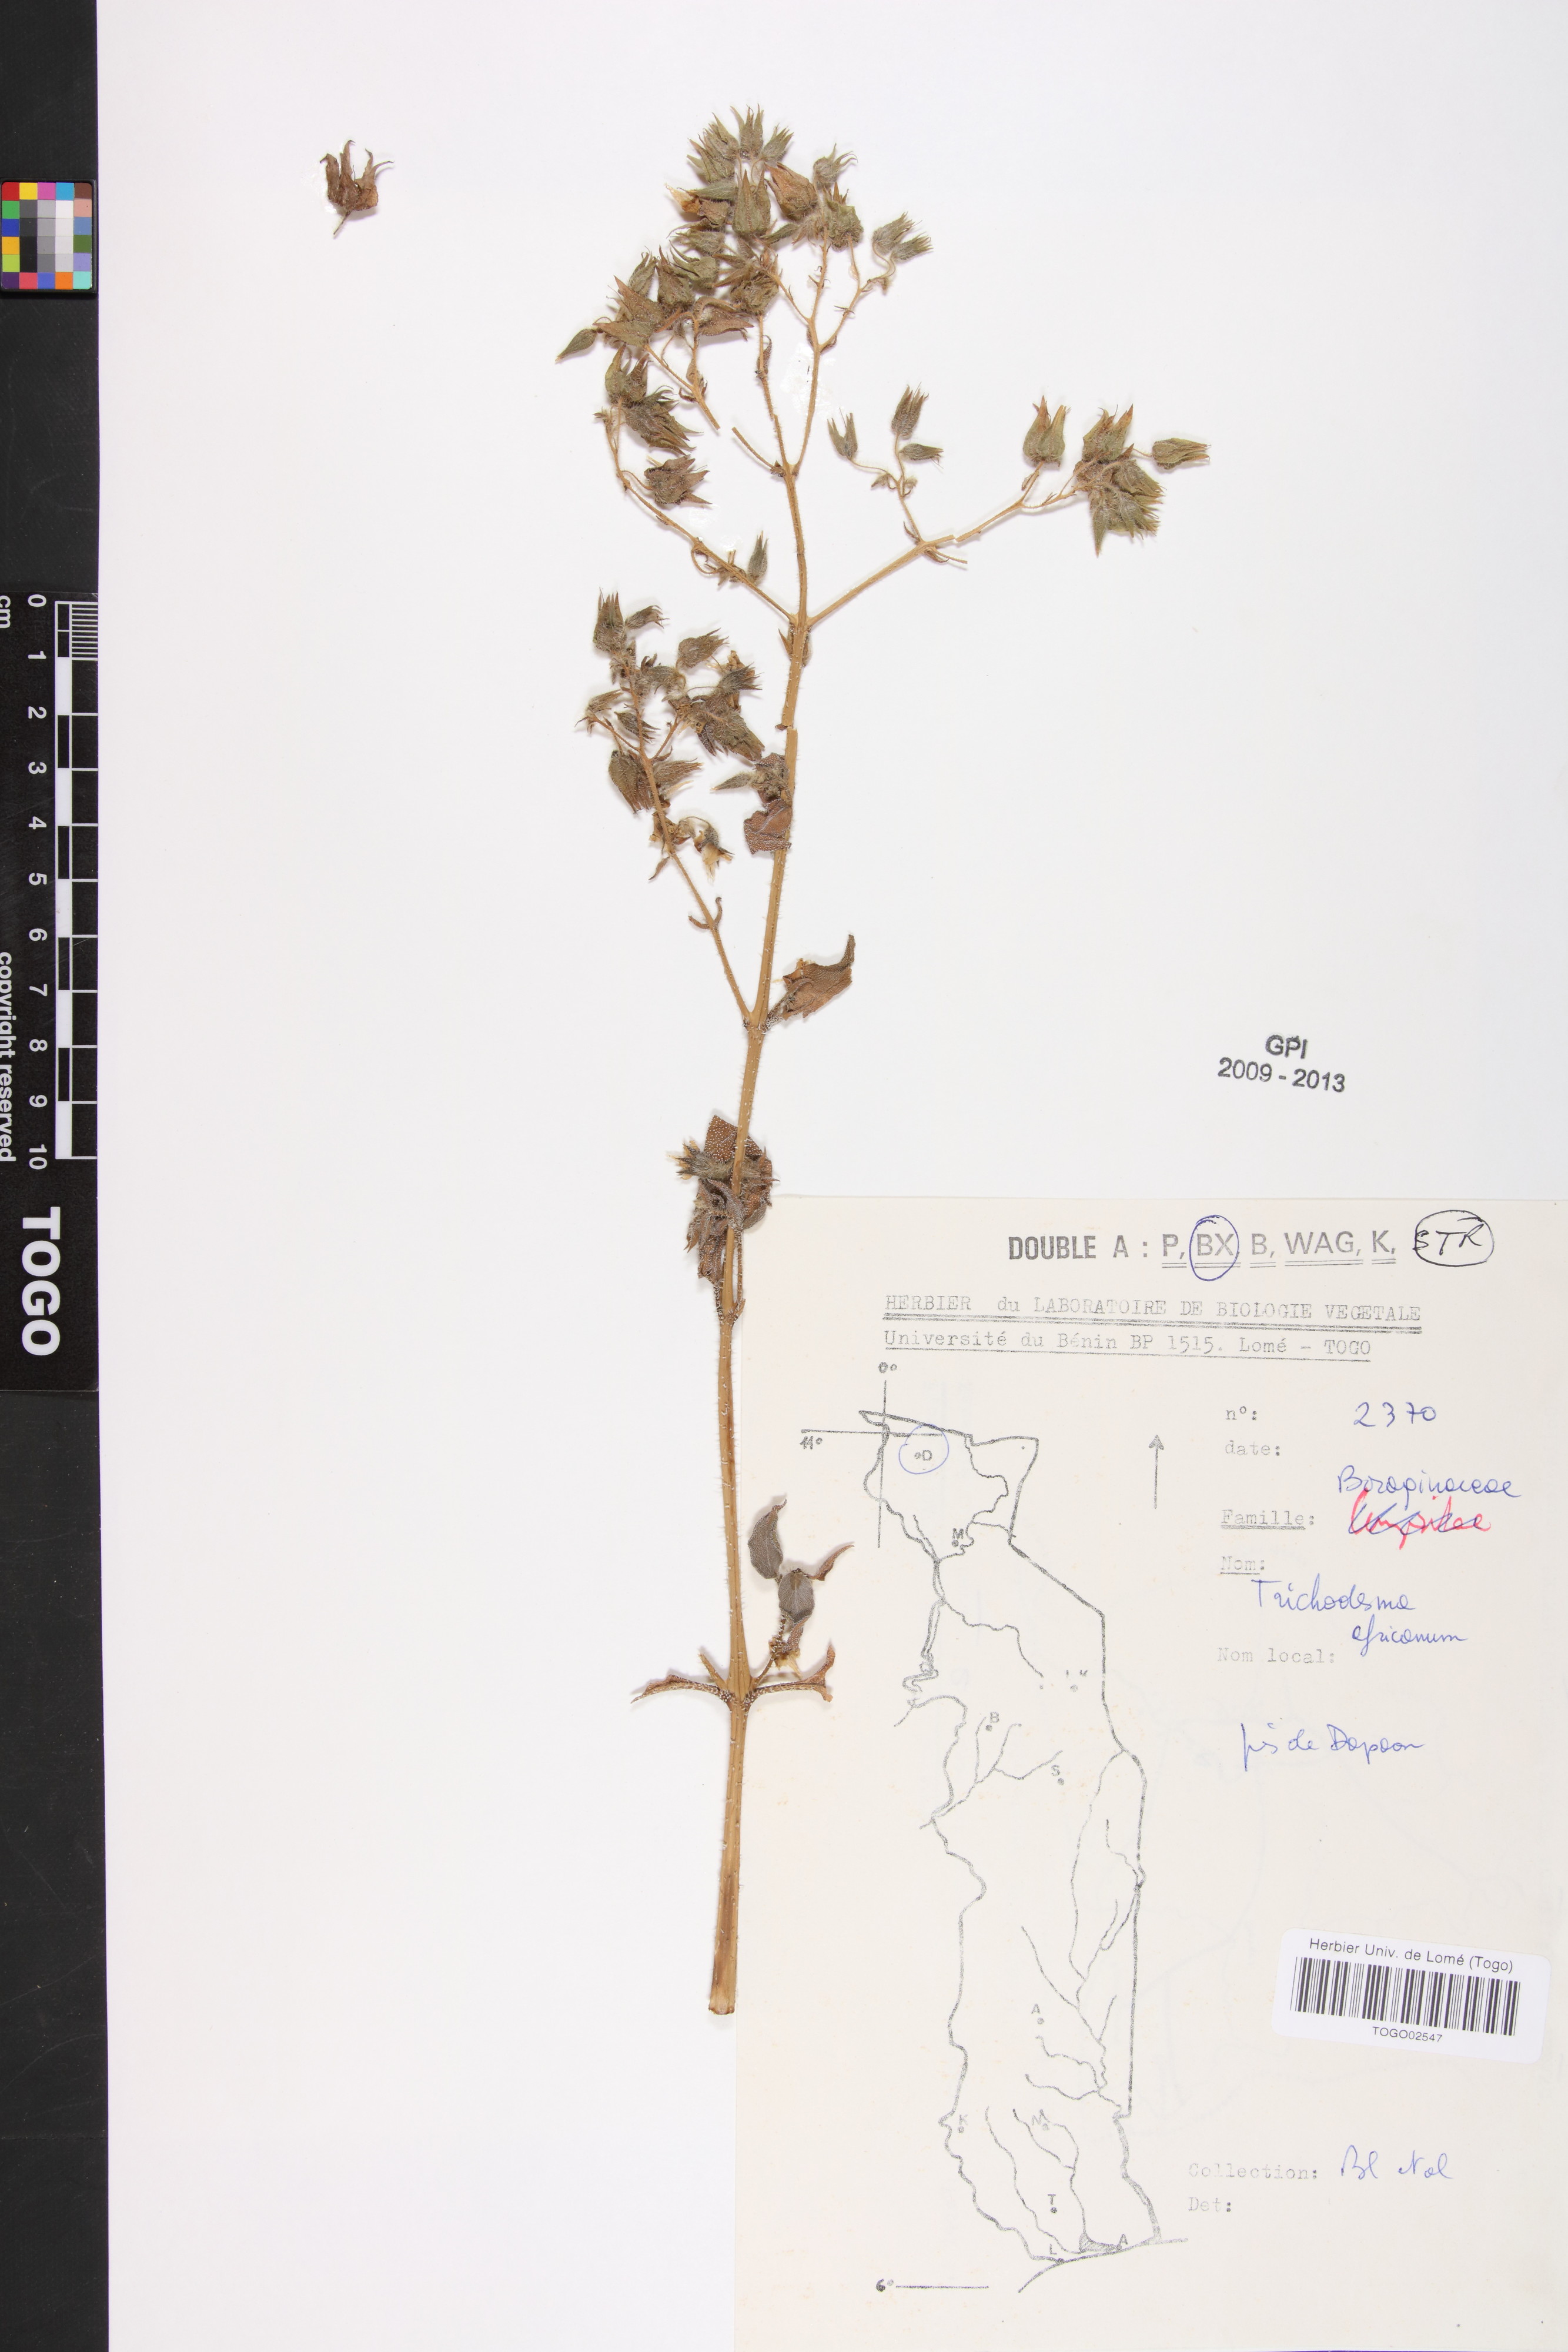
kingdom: Plantae
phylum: Tracheophyta
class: Magnoliopsida
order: Boraginales
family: Boraginaceae
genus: Trichodesma
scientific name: Trichodesma africanum
